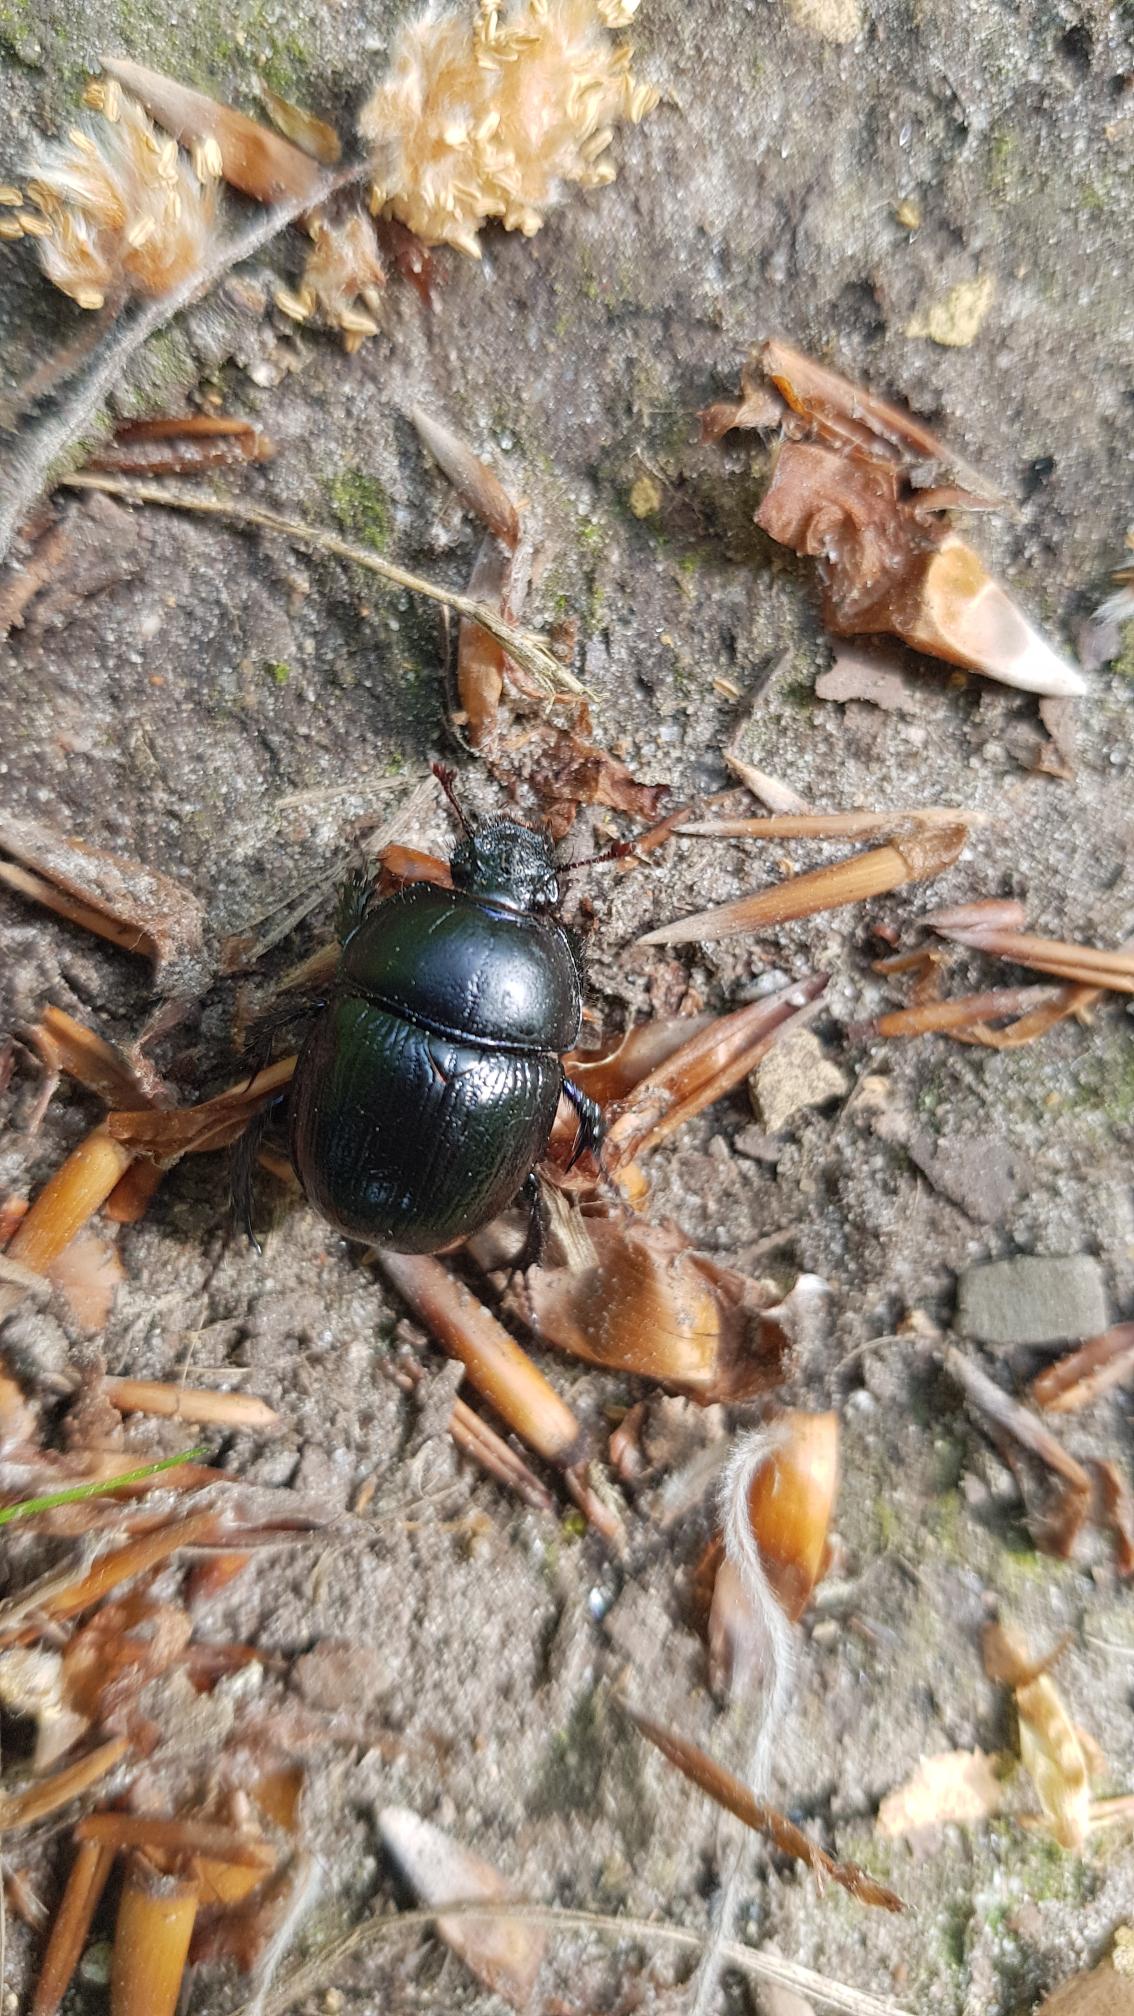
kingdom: Animalia
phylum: Arthropoda
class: Insecta
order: Coleoptera
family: Geotrupidae
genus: Anoplotrupes
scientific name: Anoplotrupes stercorosus
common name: Skovskarnbasse
